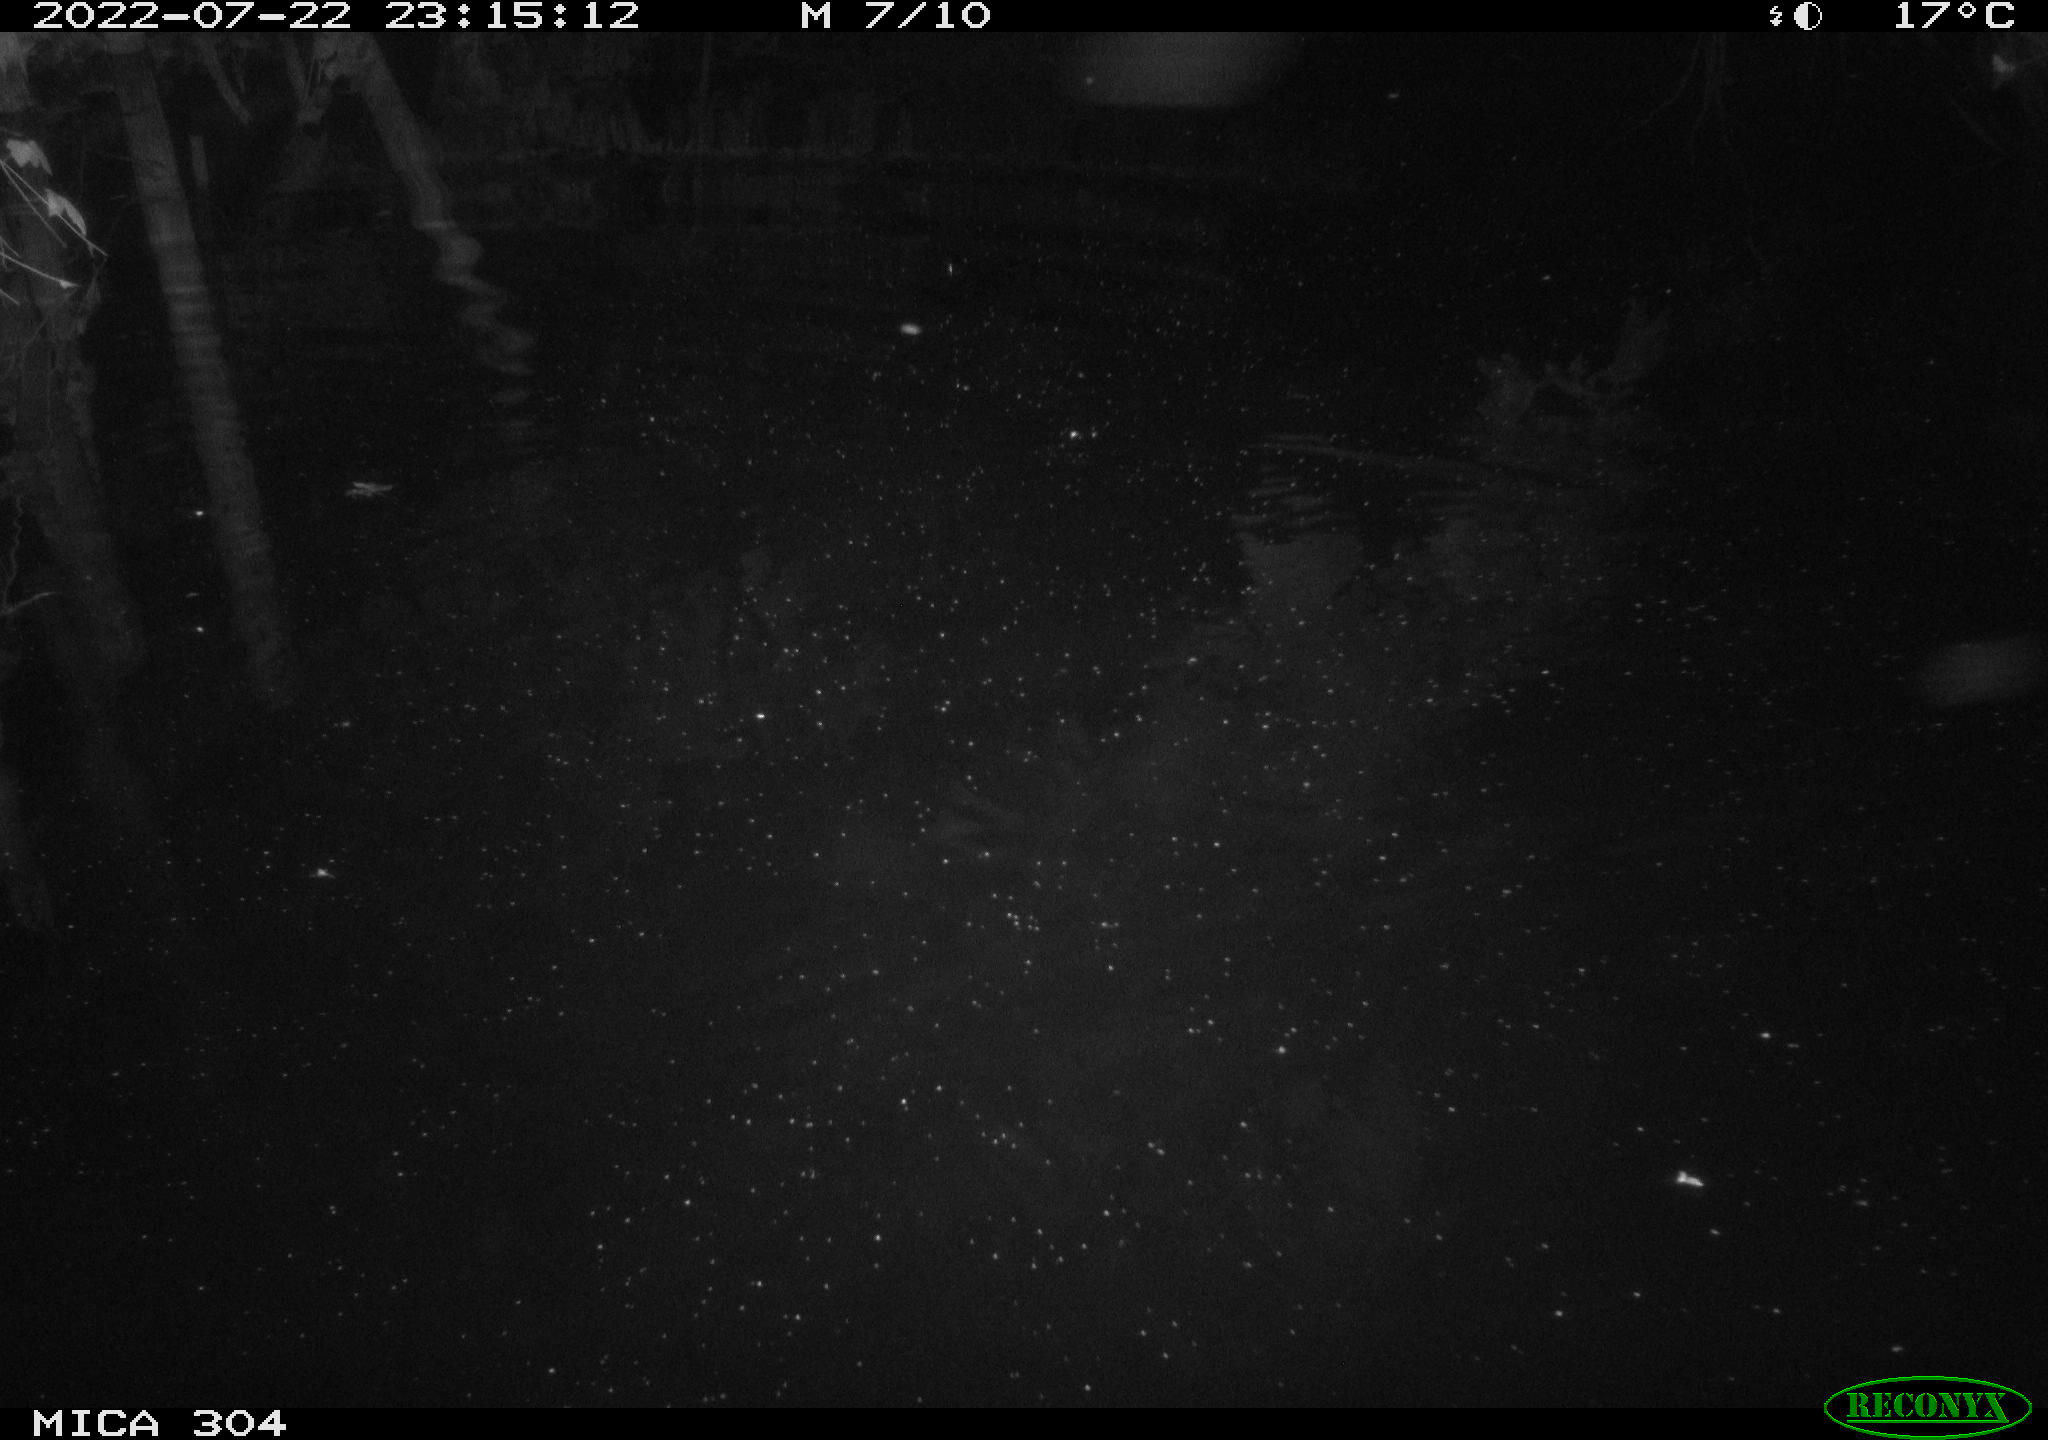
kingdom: Animalia
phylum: Chordata
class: Mammalia
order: Rodentia
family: Muridae
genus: Rattus
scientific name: Rattus norvegicus
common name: Brown rat
